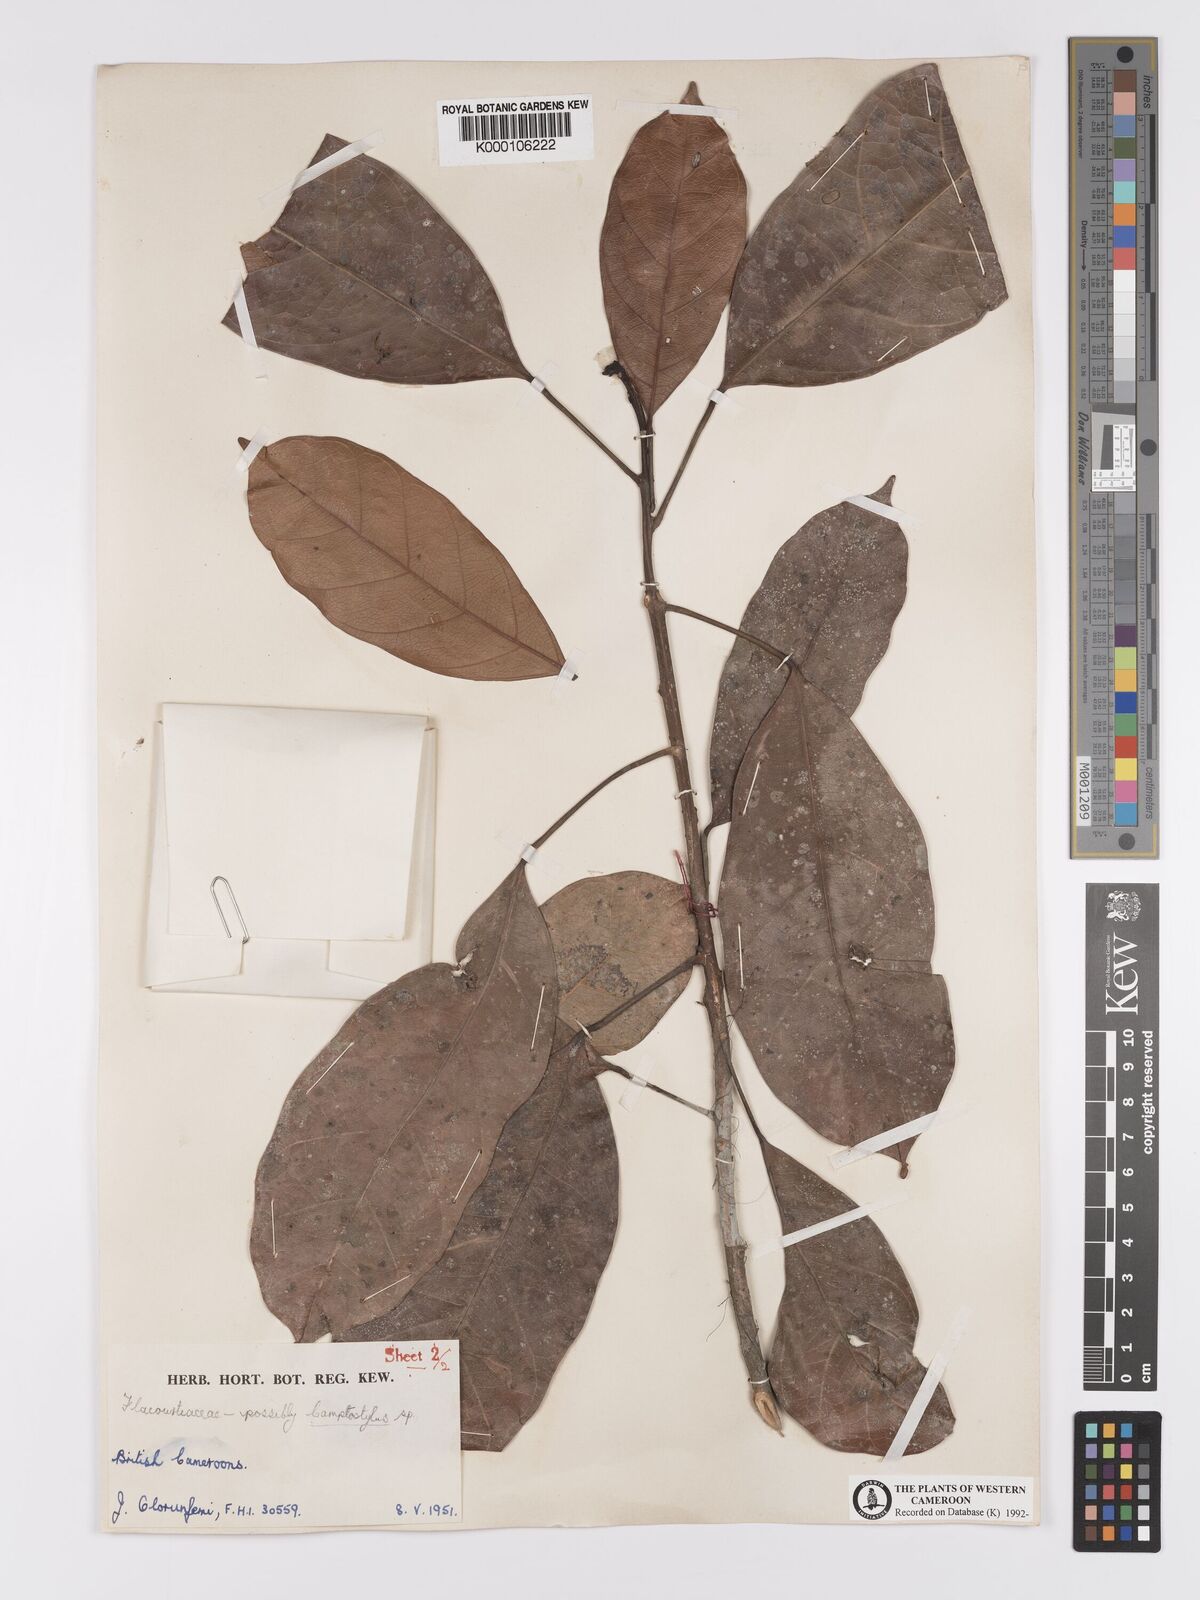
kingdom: Plantae
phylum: Tracheophyta
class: Magnoliopsida
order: Malpighiales
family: Achariaceae
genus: Camptostylus
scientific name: Camptostylus mannii
